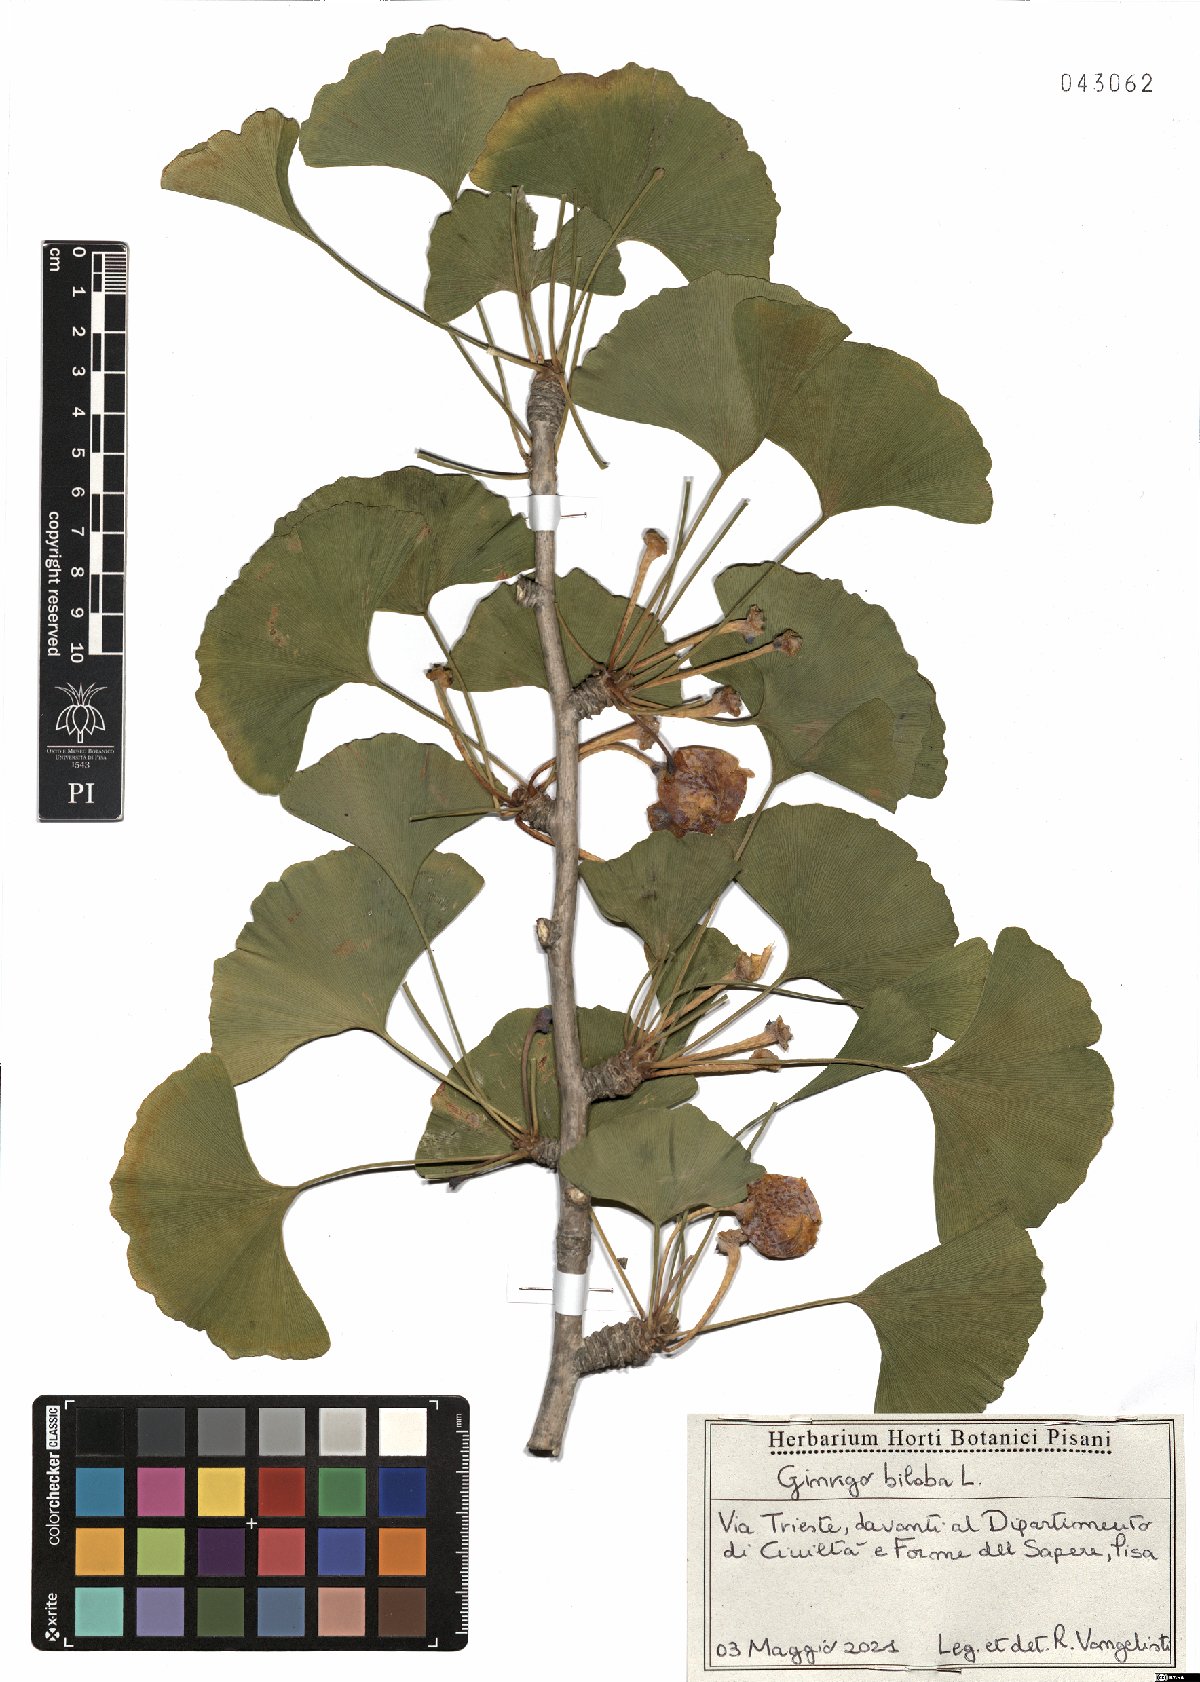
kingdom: Plantae
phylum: Tracheophyta
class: Ginkgoopsida
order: Ginkgoales
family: Ginkgoaceae
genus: Ginkgo
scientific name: Ginkgo biloba
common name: Ginkgo
